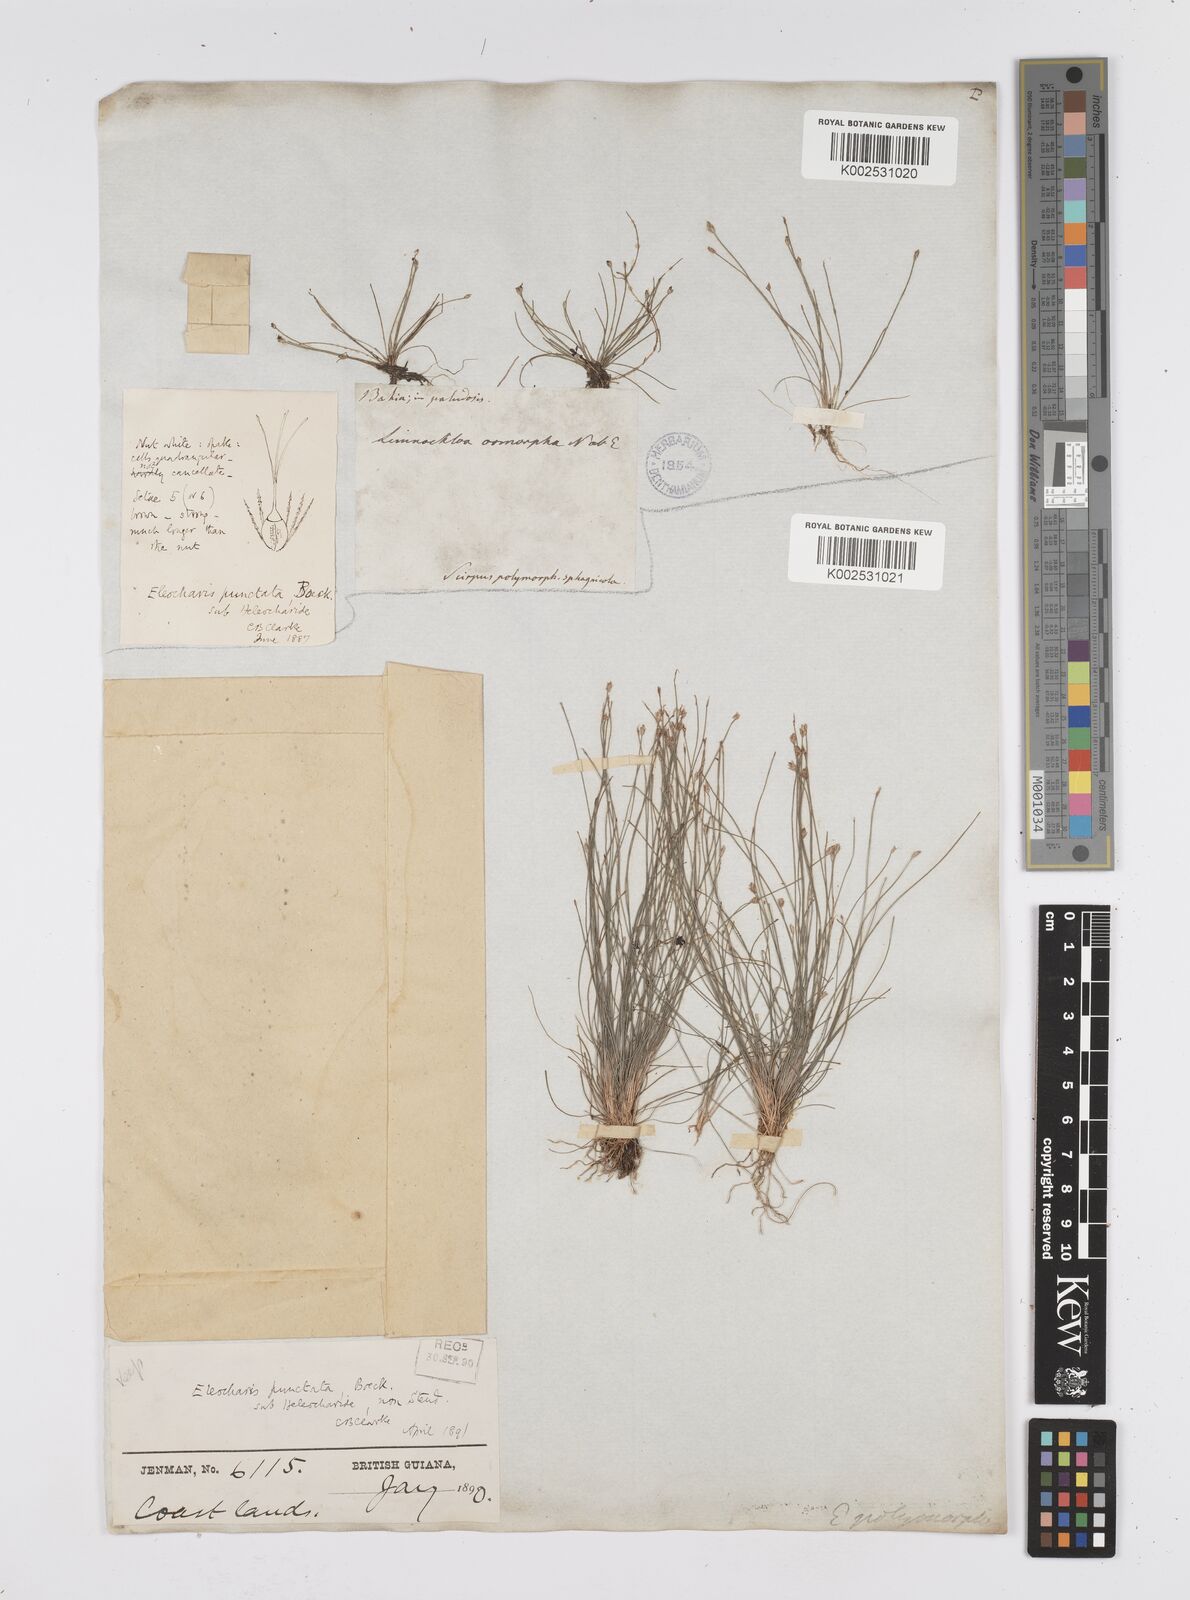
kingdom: Plantae
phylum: Tracheophyta
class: Liliopsida
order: Poales
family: Cyperaceae
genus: Eleocharis
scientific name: Eleocharis nana
